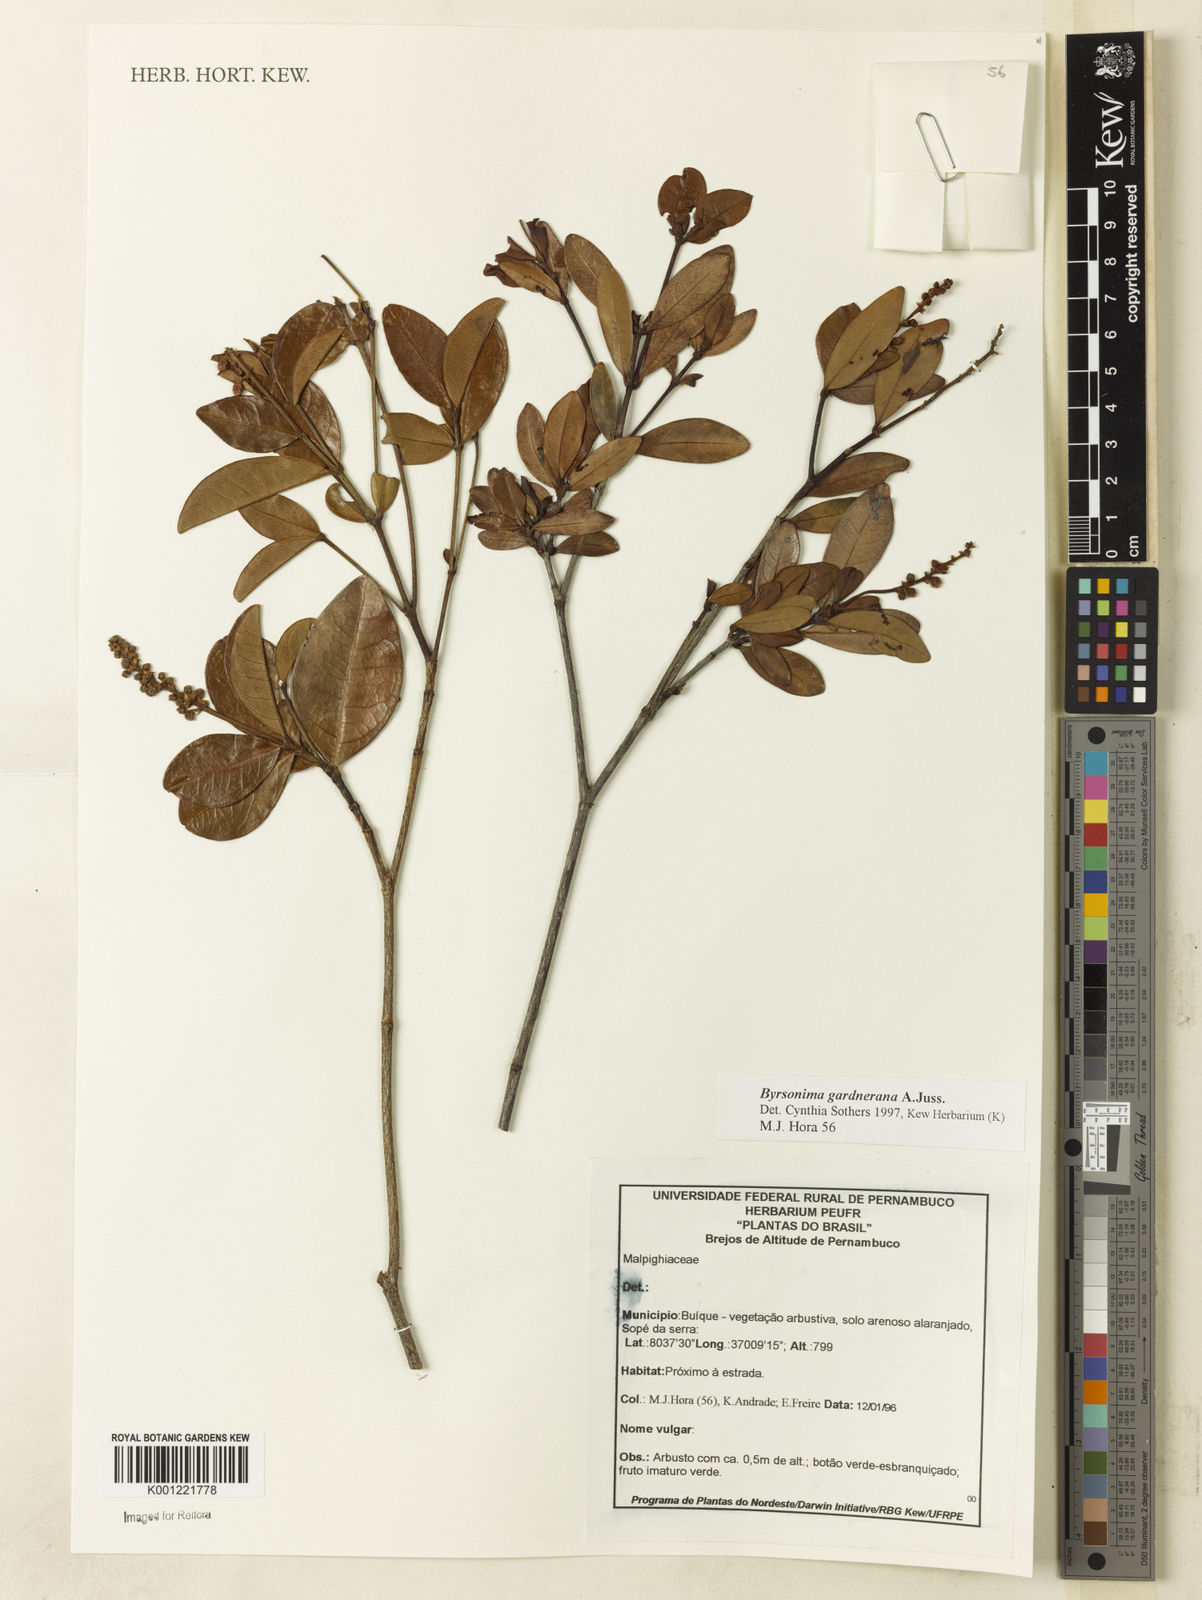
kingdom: Plantae
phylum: Tracheophyta
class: Magnoliopsida
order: Malpighiales
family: Malpighiaceae
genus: Byrsonima
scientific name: Byrsonima gardneriana
